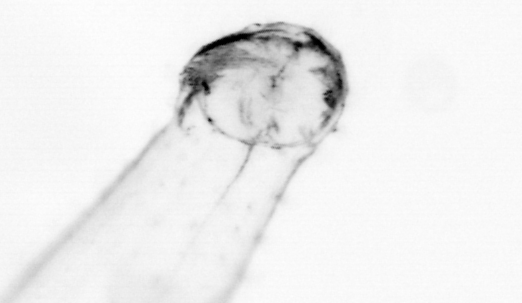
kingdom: Animalia
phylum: Chaetognatha
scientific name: Chaetognatha
